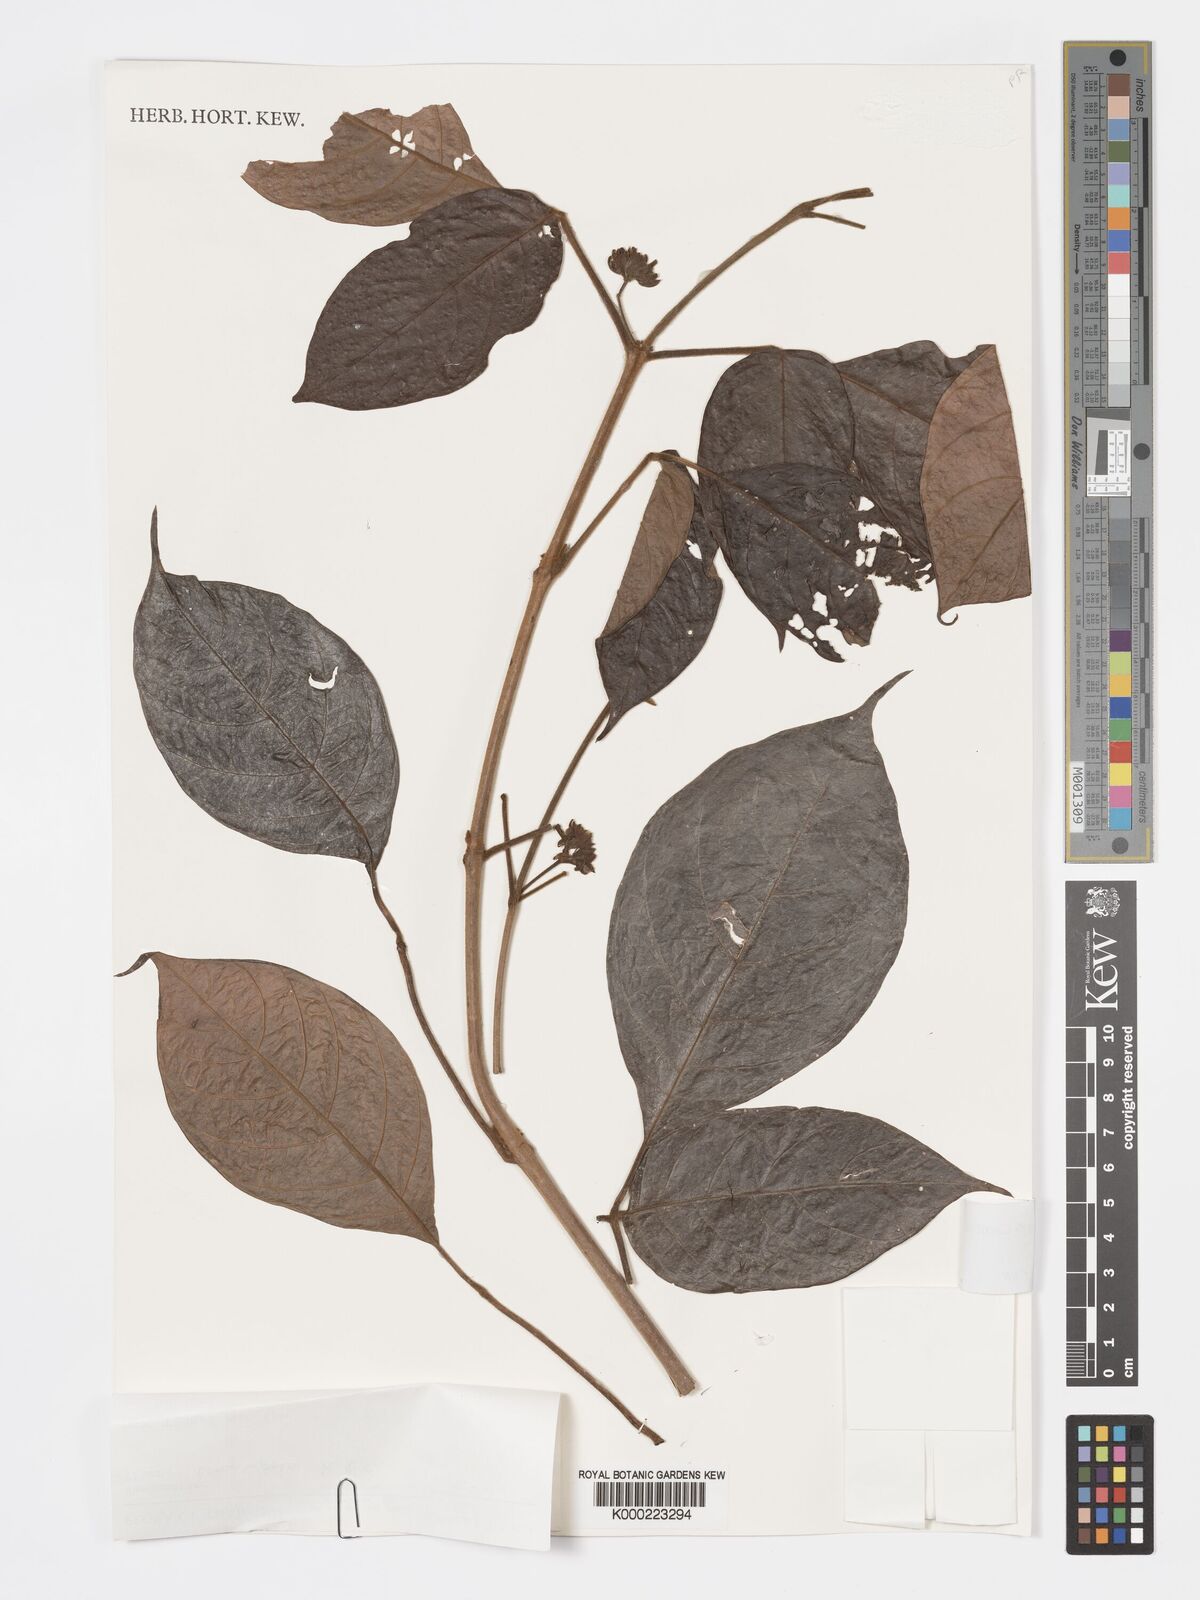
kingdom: Plantae
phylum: Tracheophyta
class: Magnoliopsida
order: Lamiales
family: Lamiaceae
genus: Vitex
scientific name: Vitex longisepala
